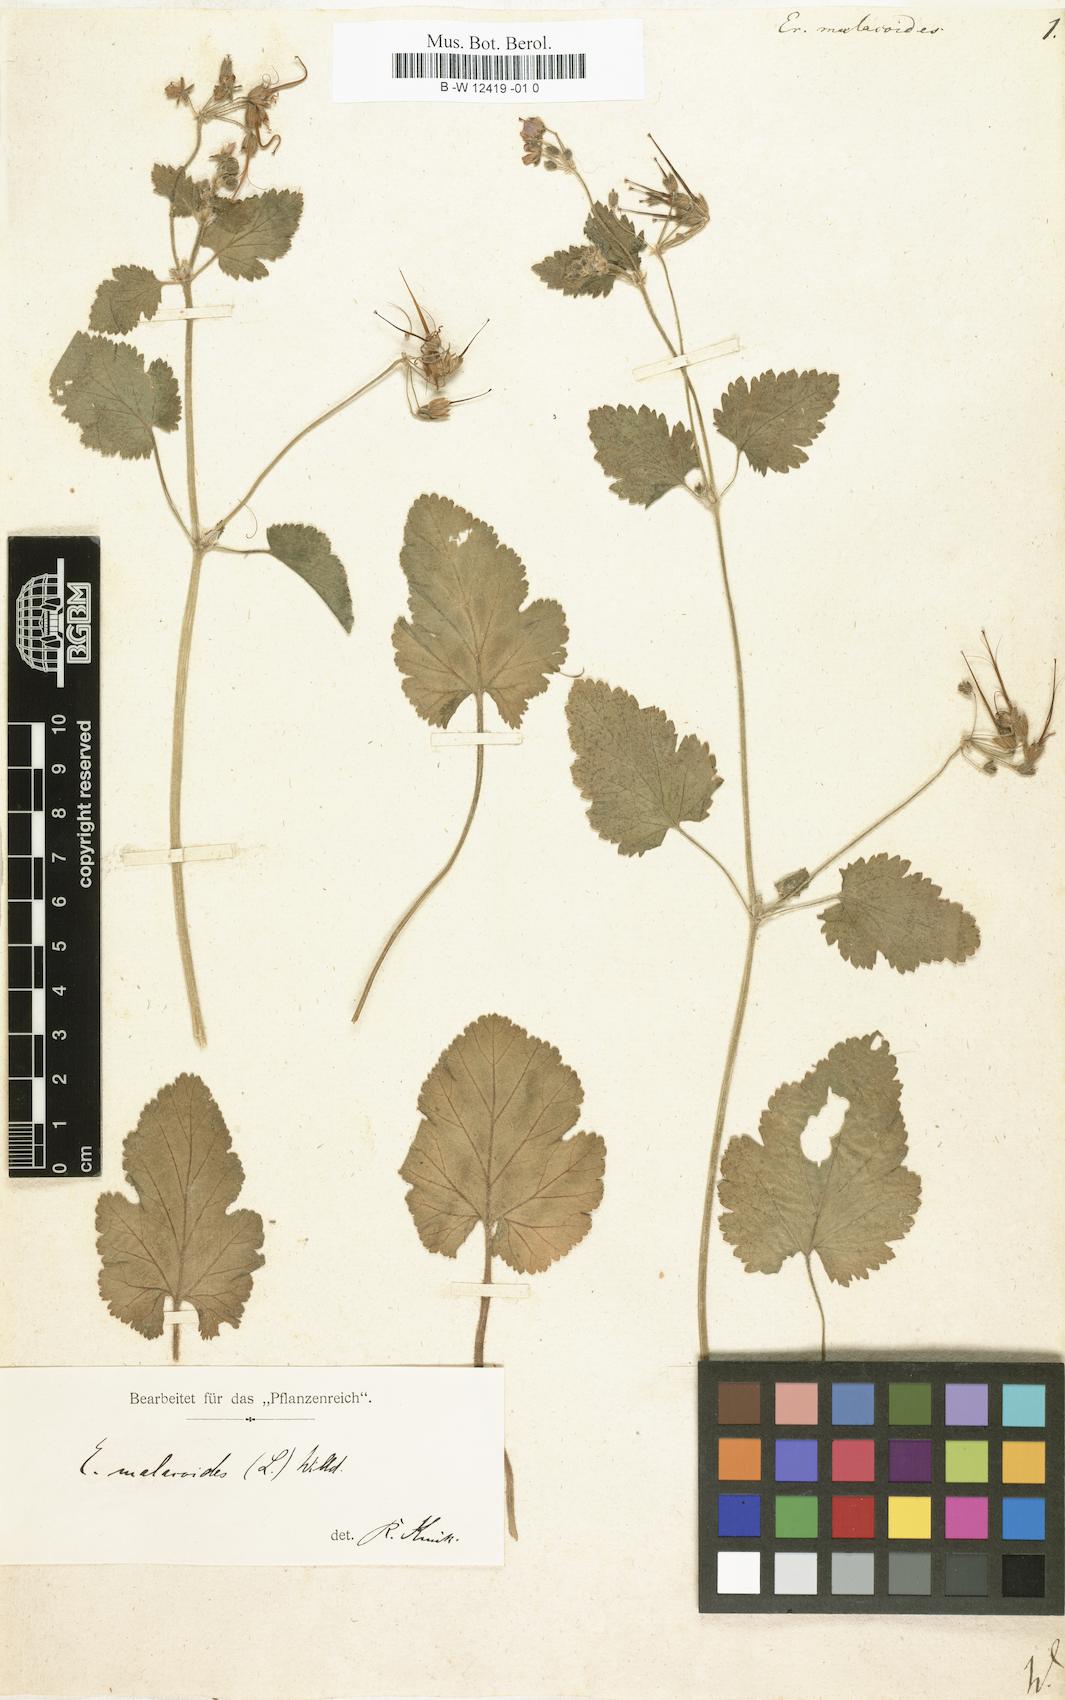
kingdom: Plantae
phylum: Tracheophyta
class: Magnoliopsida
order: Geraniales
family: Geraniaceae
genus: Erodium
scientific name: Erodium malacoides
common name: Soft stork's-bill
